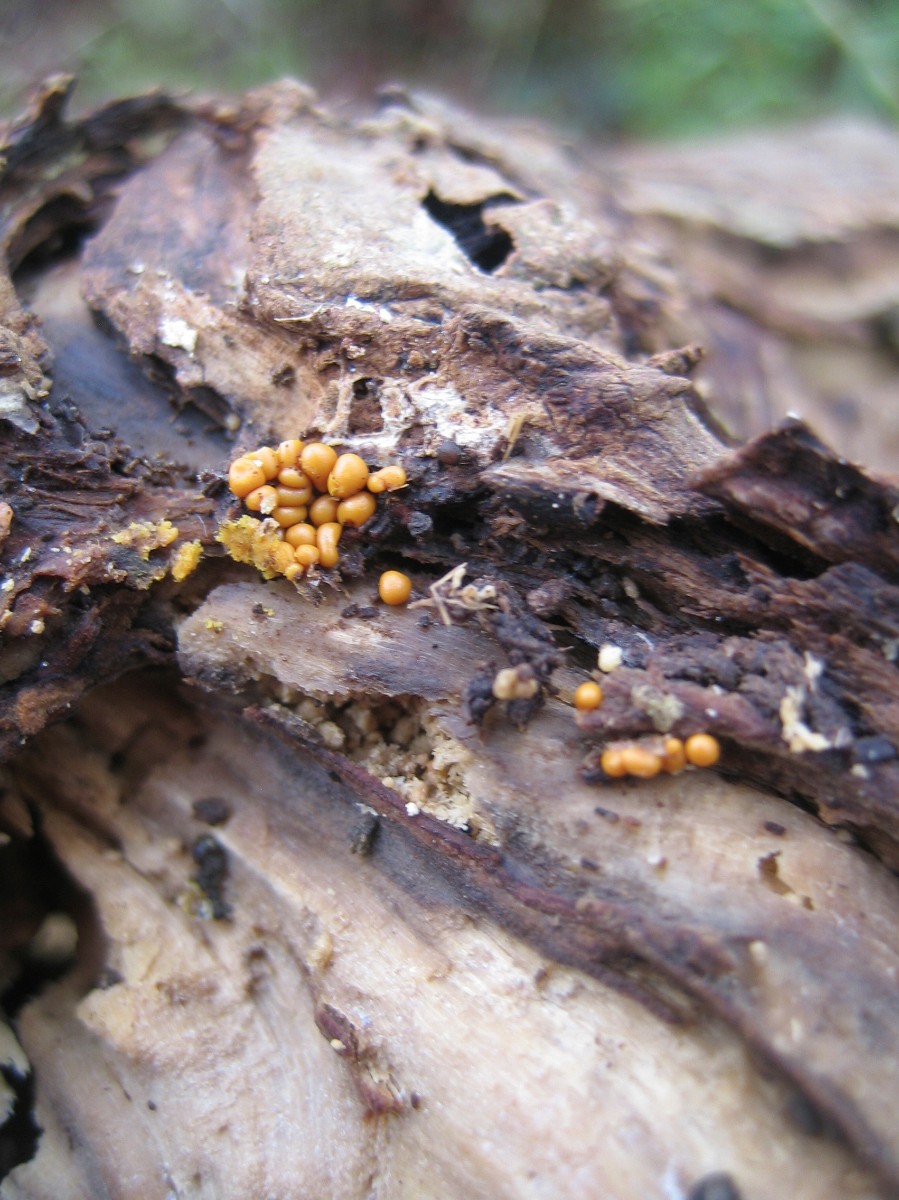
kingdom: Protozoa
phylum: Mycetozoa
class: Myxomycetes
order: Trichiales
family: Trichiaceae
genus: Trichia
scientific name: Trichia varia
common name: foranderlig hårbold
